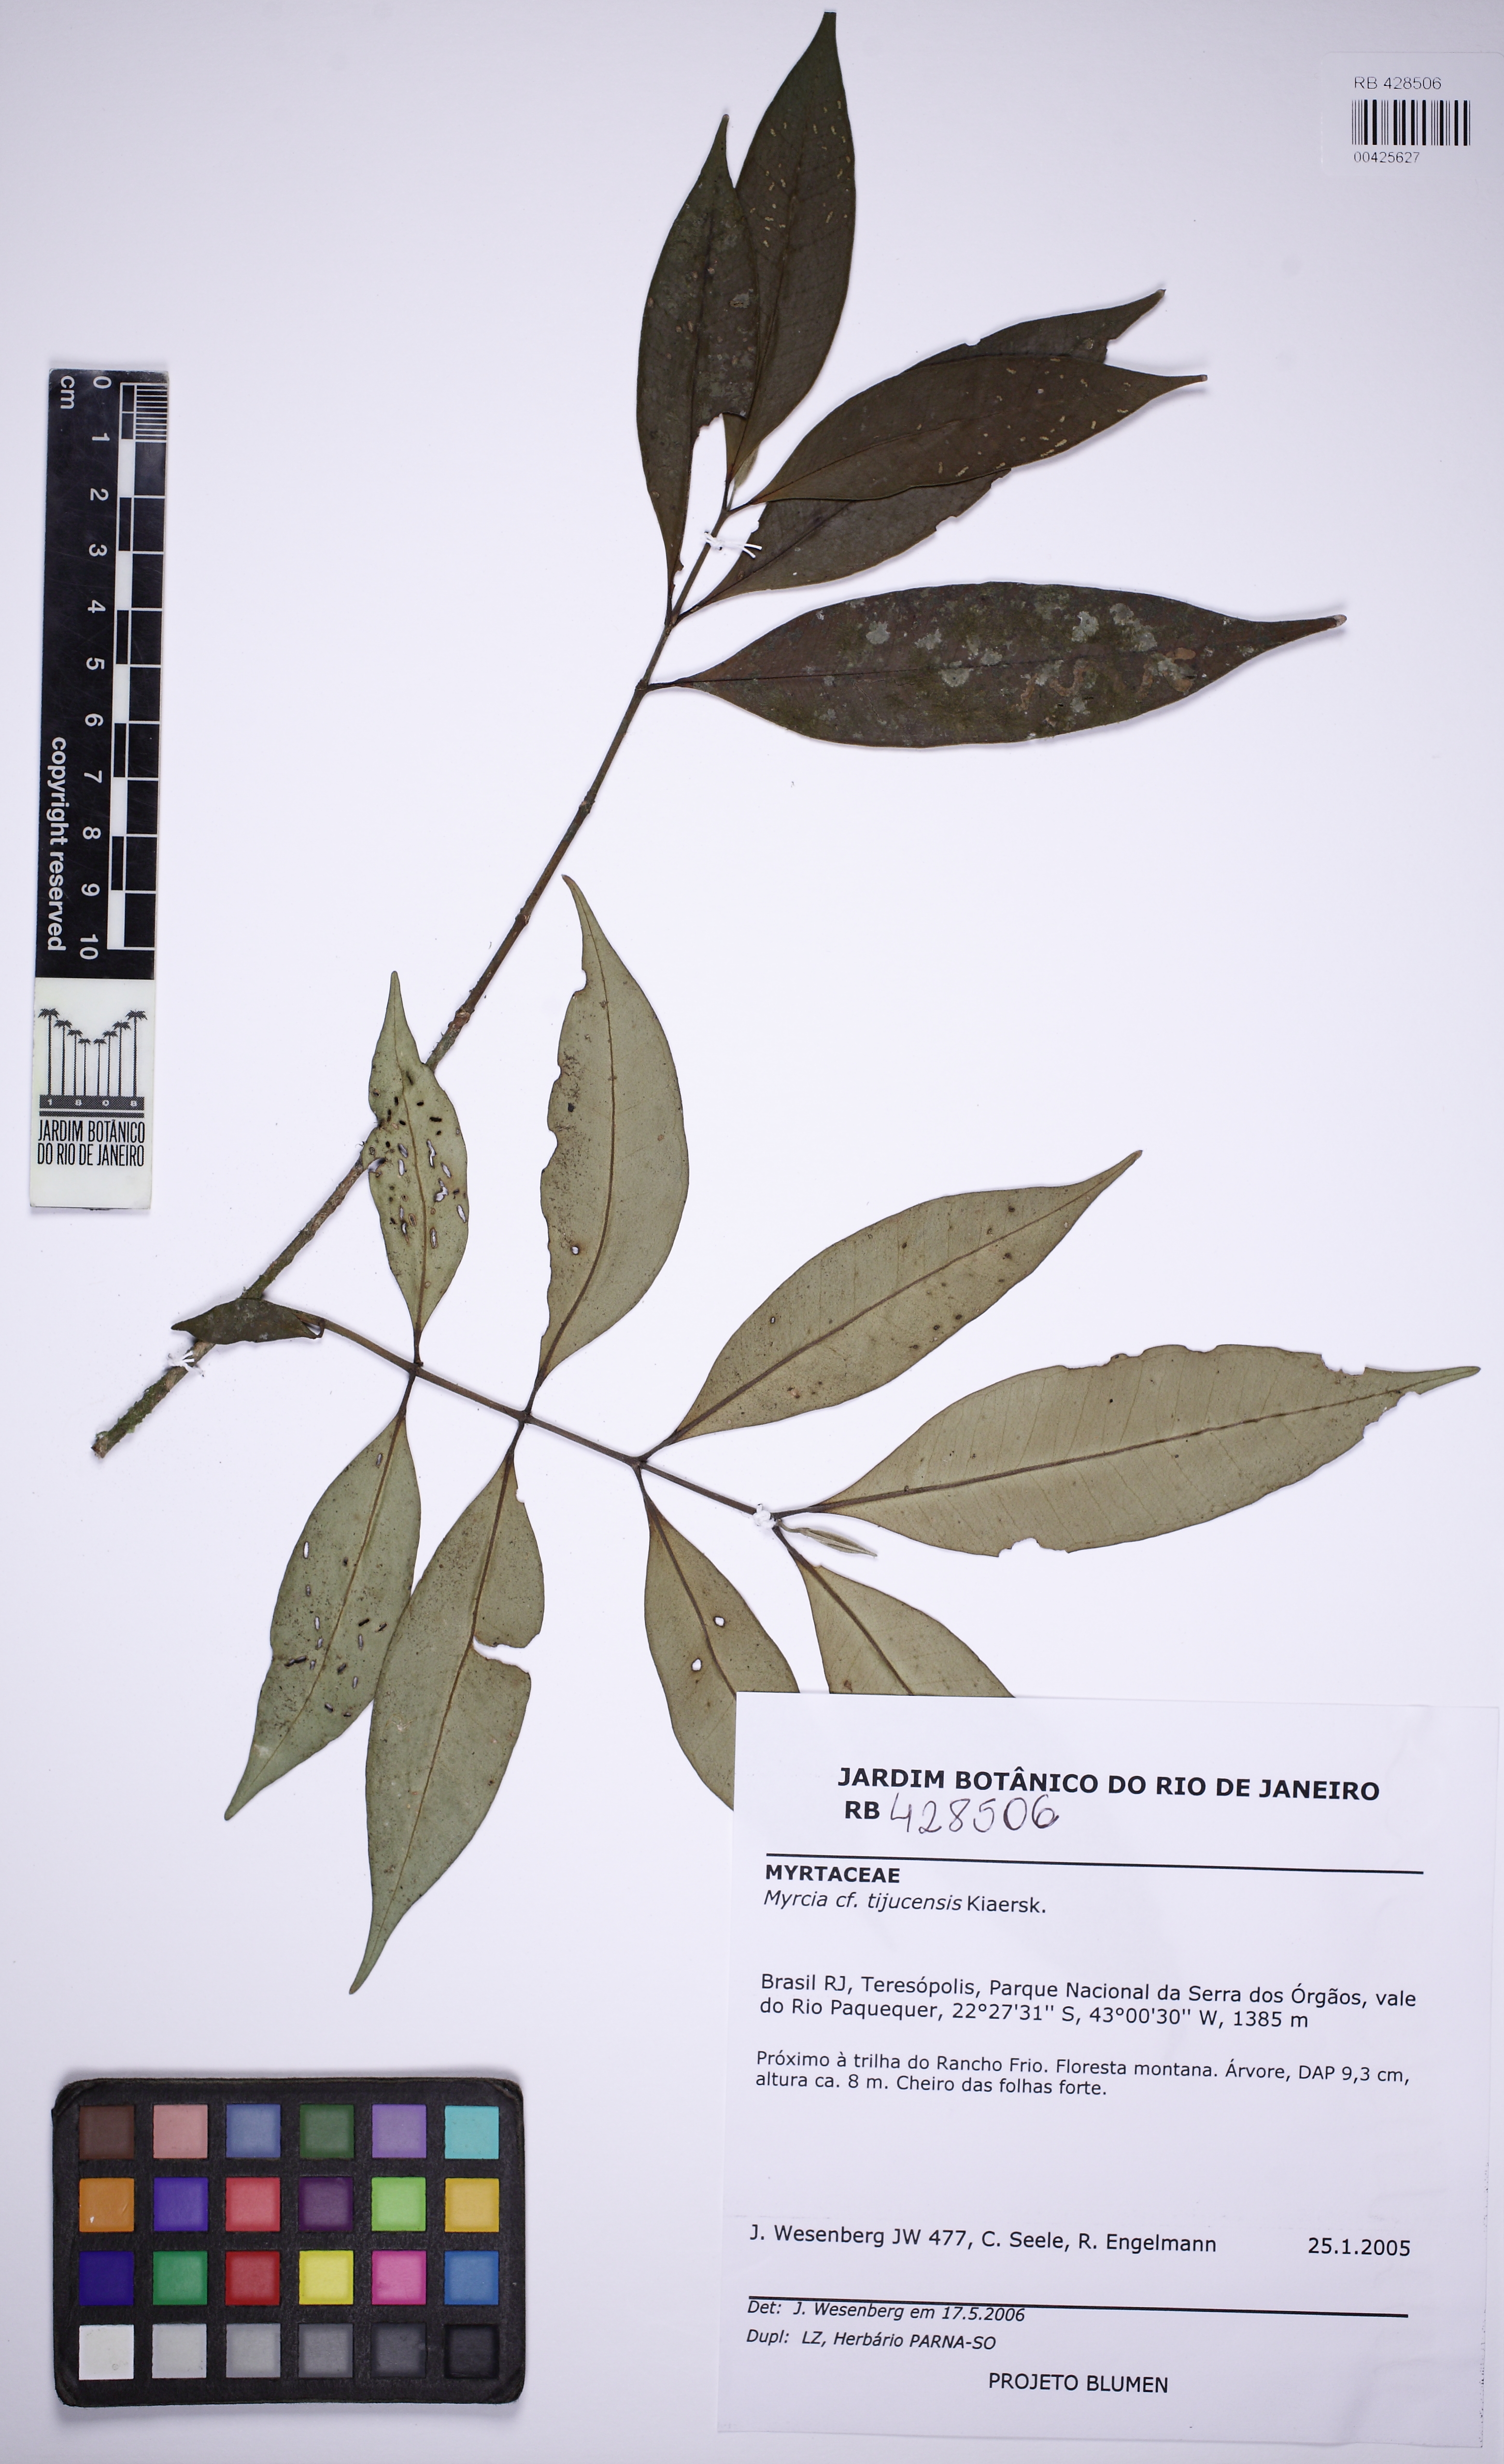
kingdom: Plantae
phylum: Tracheophyta
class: Magnoliopsida
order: Myrtales
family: Myrtaceae
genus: Myrcia
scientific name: Myrcia tijucensis
